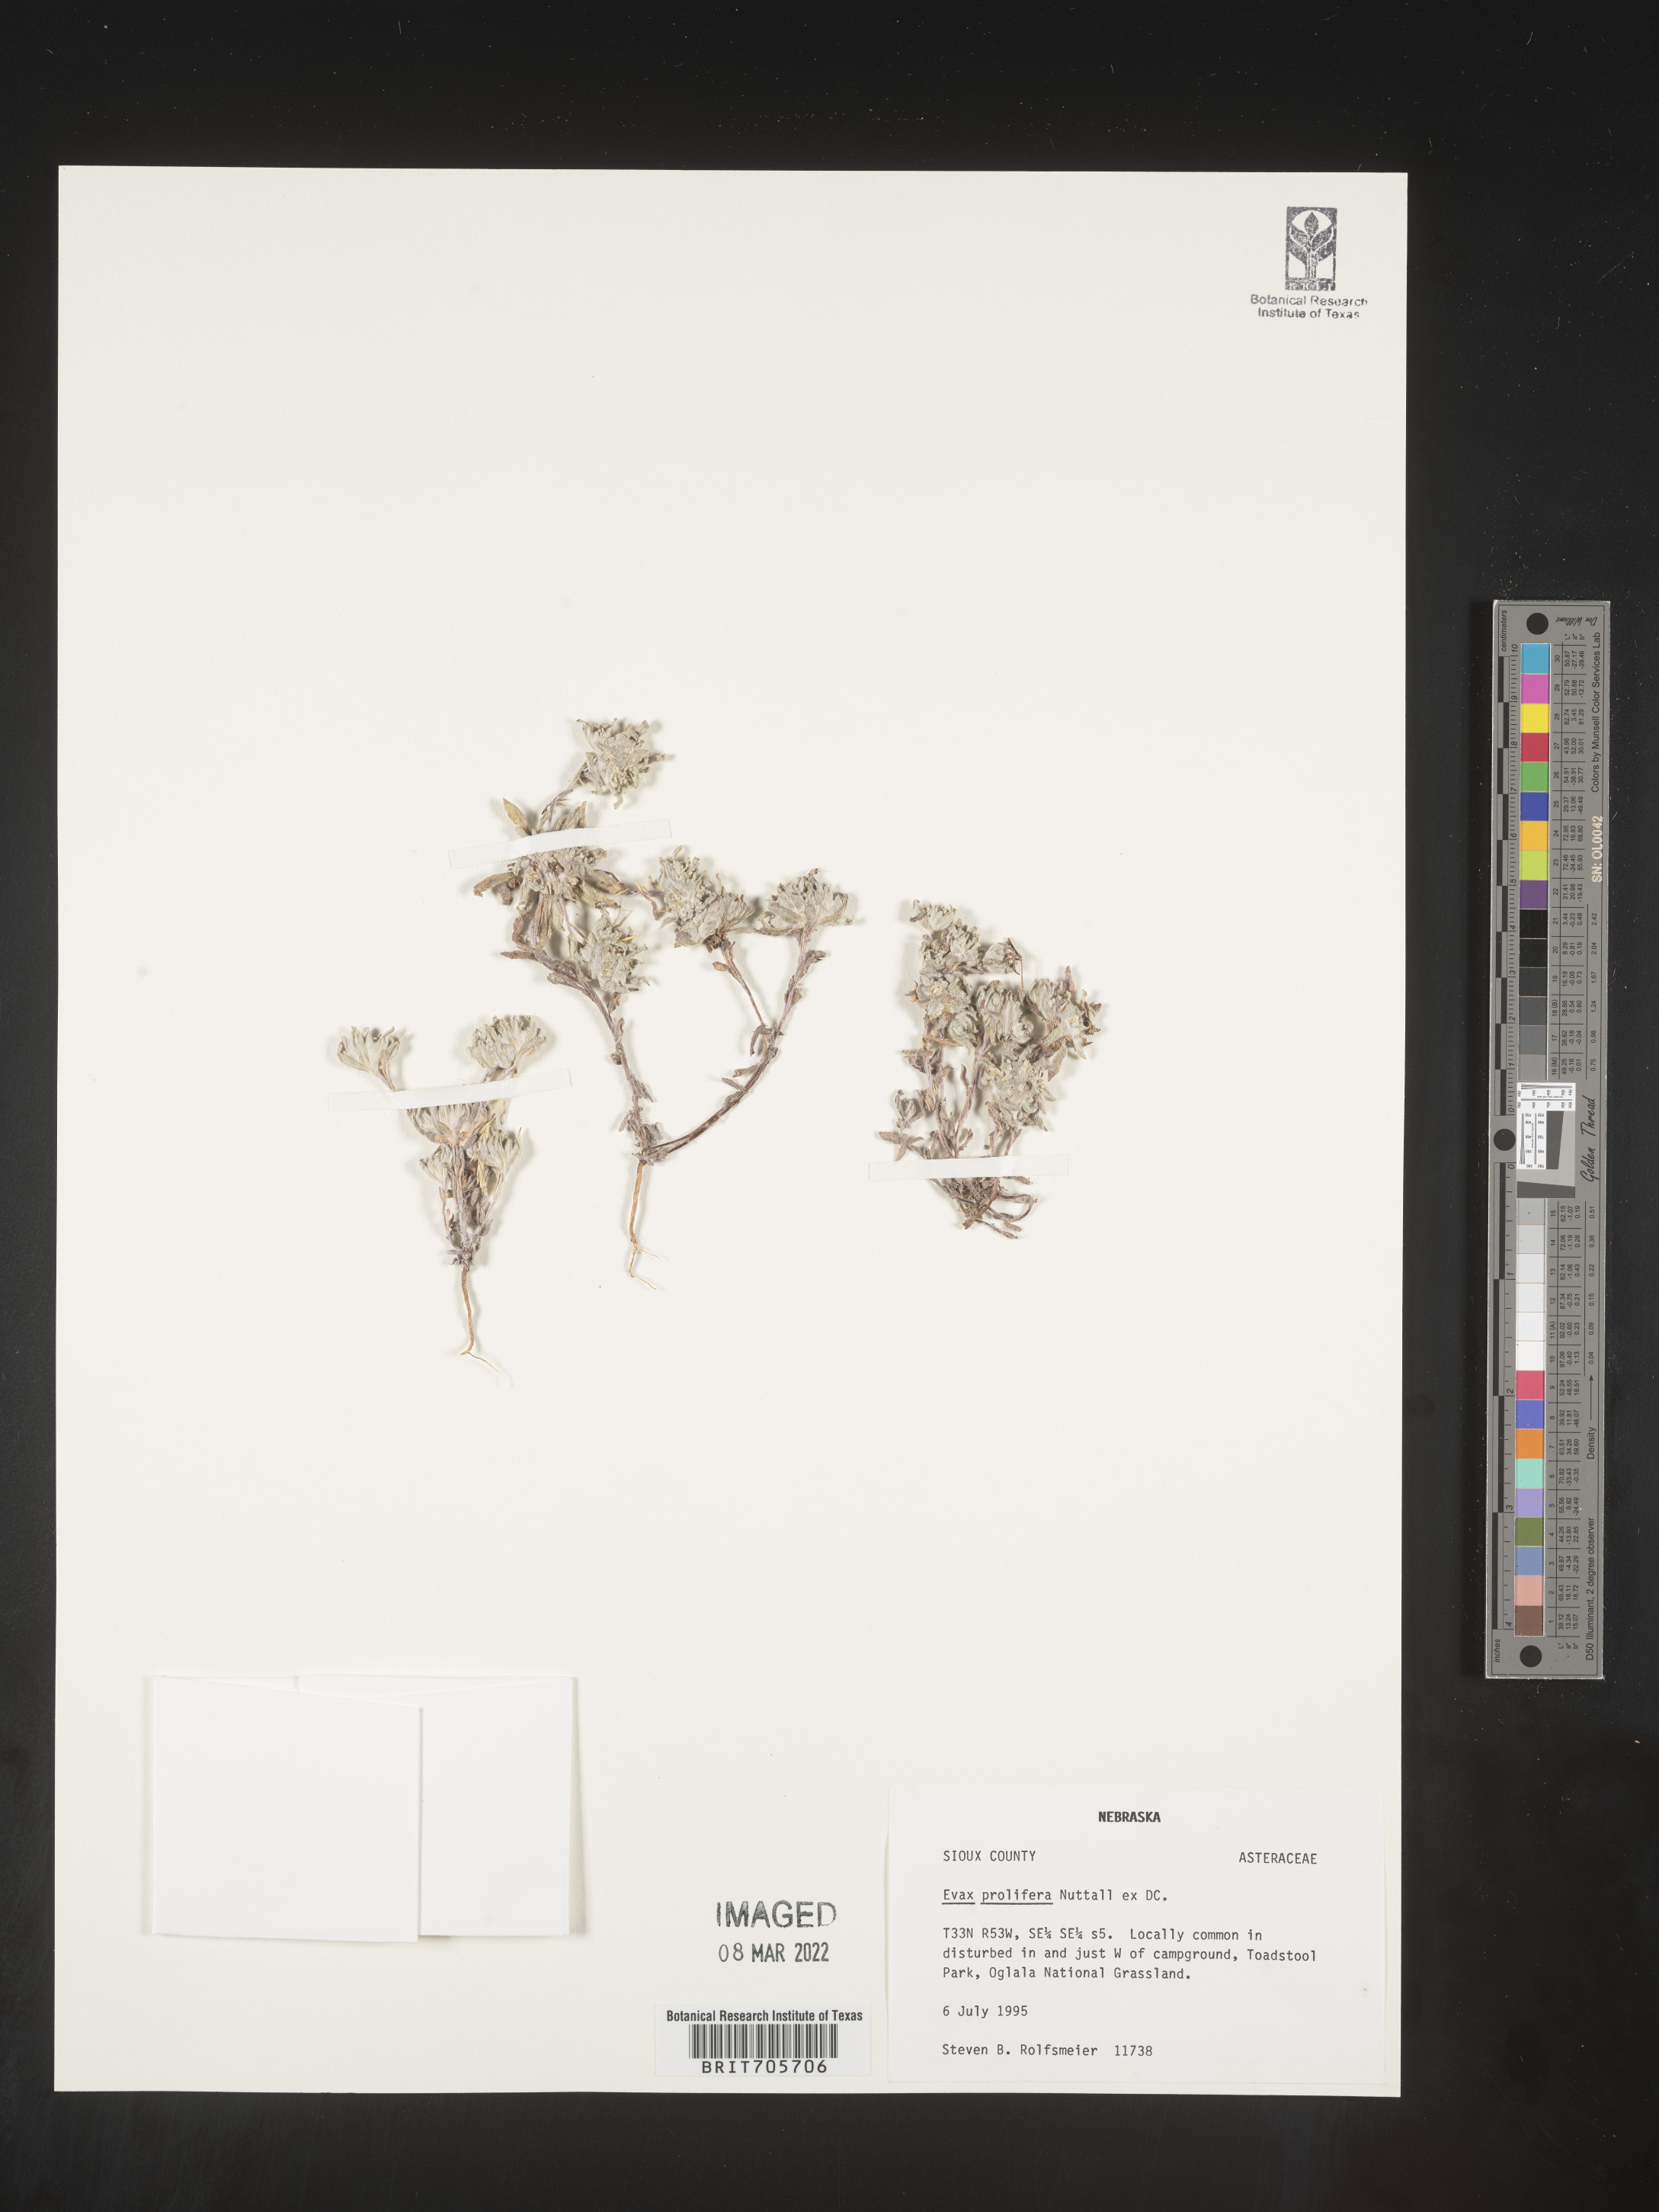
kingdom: Plantae
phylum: Tracheophyta
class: Magnoliopsida
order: Asterales
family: Asteraceae
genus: Diaperia
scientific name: Diaperia prolifera
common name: Big-head rabbit-tobacco
